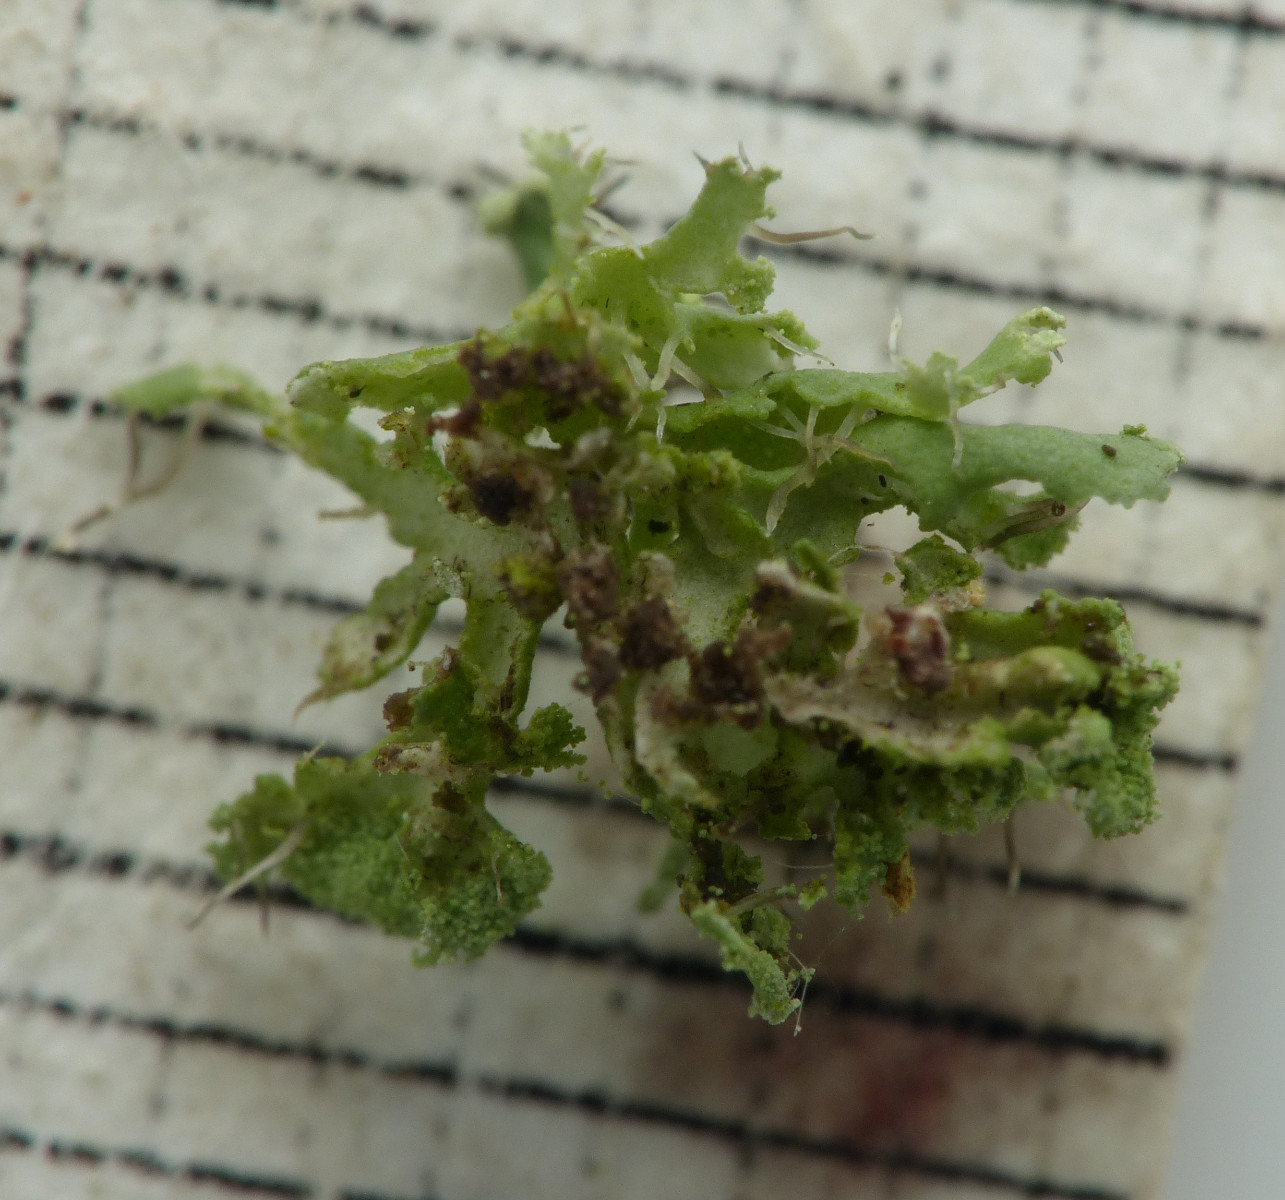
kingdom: Fungi
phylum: Ascomycota
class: Lecanoromycetes
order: Caliciales
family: Physciaceae
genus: Physcia
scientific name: Physcia tenella
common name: spæd rosetlav
